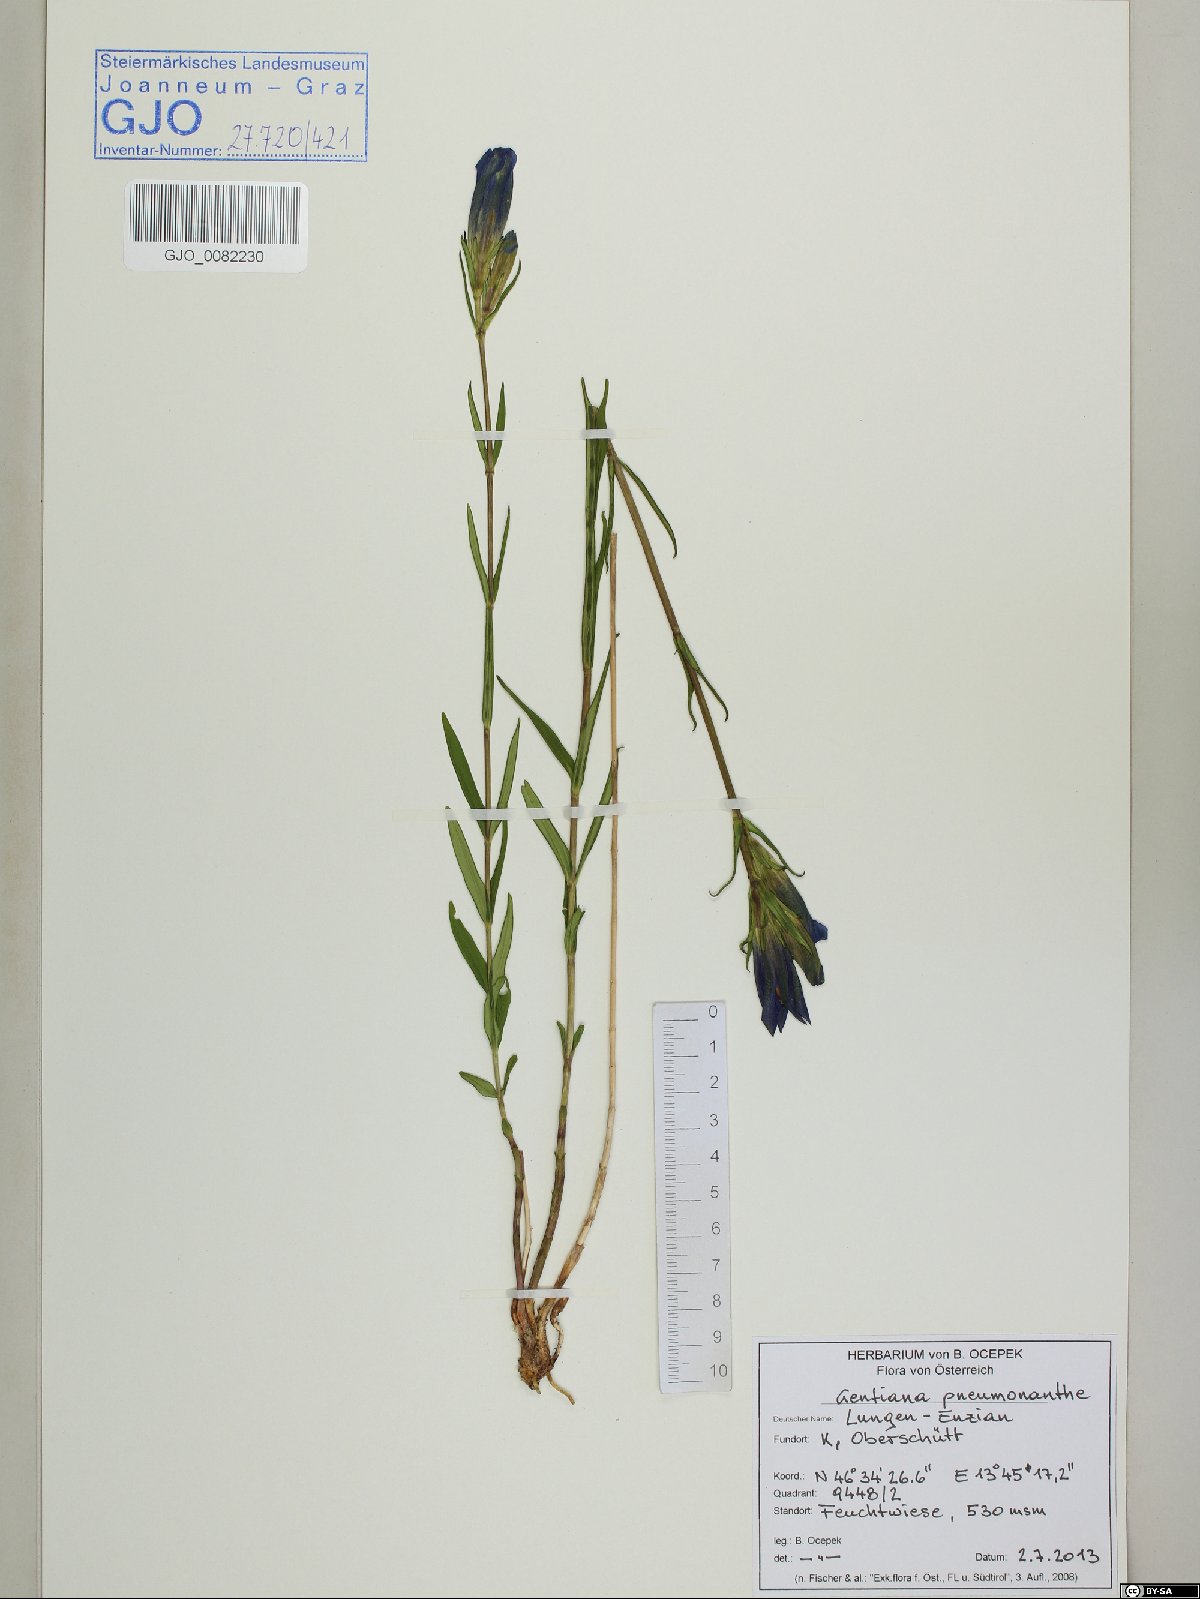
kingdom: Plantae
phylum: Tracheophyta
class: Magnoliopsida
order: Gentianales
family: Gentianaceae
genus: Gentiana
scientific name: Gentiana pneumonanthe
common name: Marsh gentian
